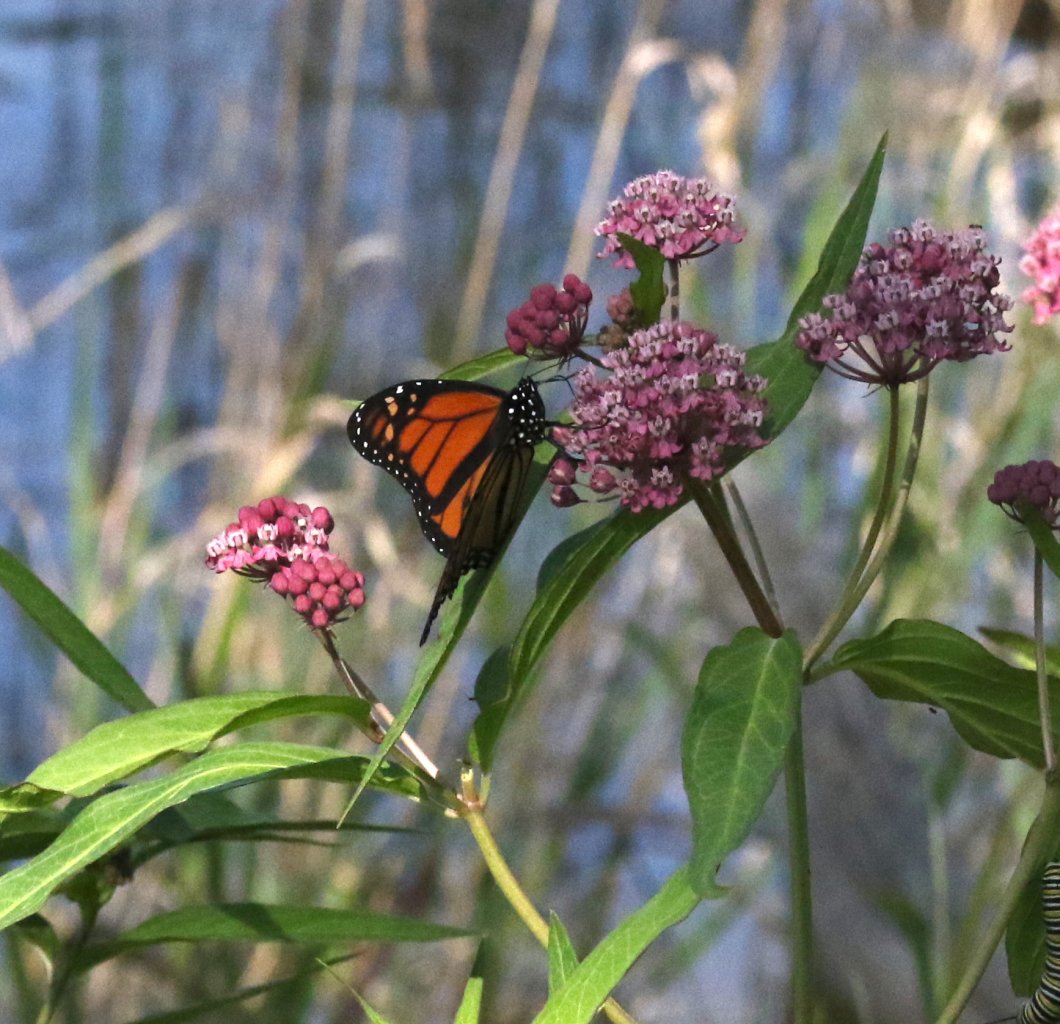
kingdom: Animalia
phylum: Arthropoda
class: Insecta
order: Lepidoptera
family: Nymphalidae
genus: Danaus
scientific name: Danaus plexippus
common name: Monarch
